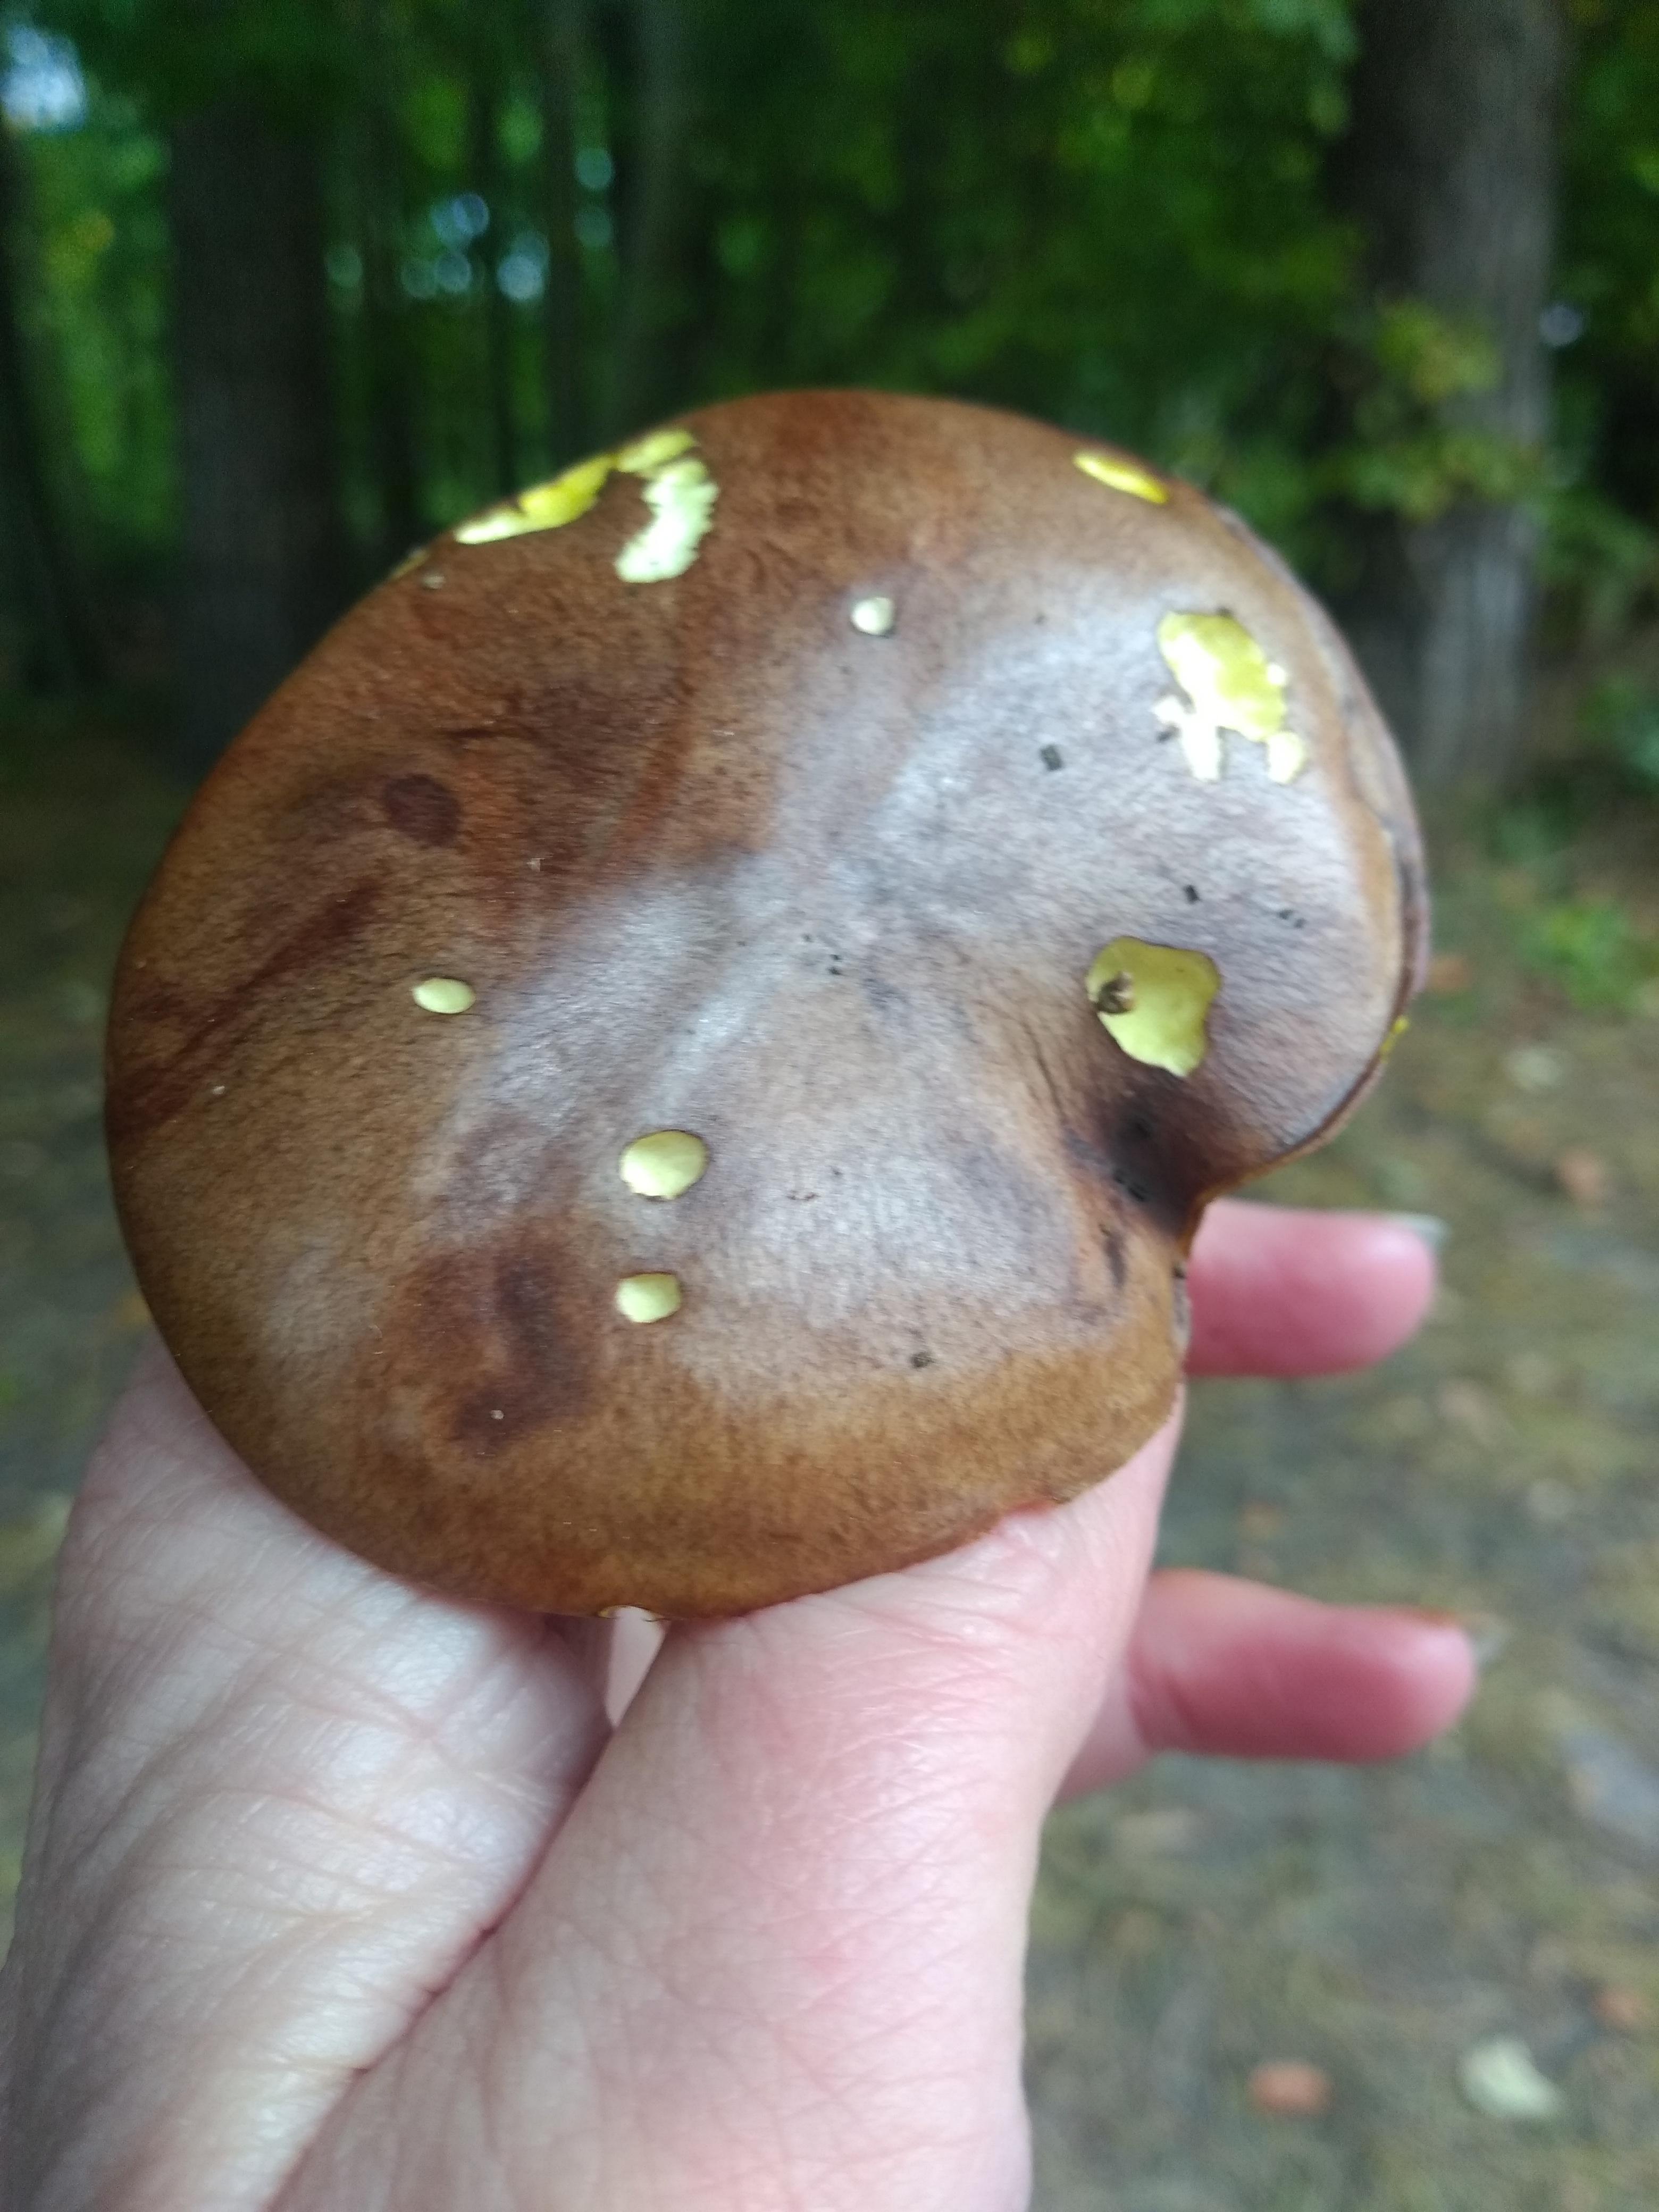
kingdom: Fungi
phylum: Basidiomycota
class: Agaricomycetes
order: Boletales
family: Suillaceae
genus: Suillus
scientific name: Suillus collinitus
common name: rosafodet slimrørhat
